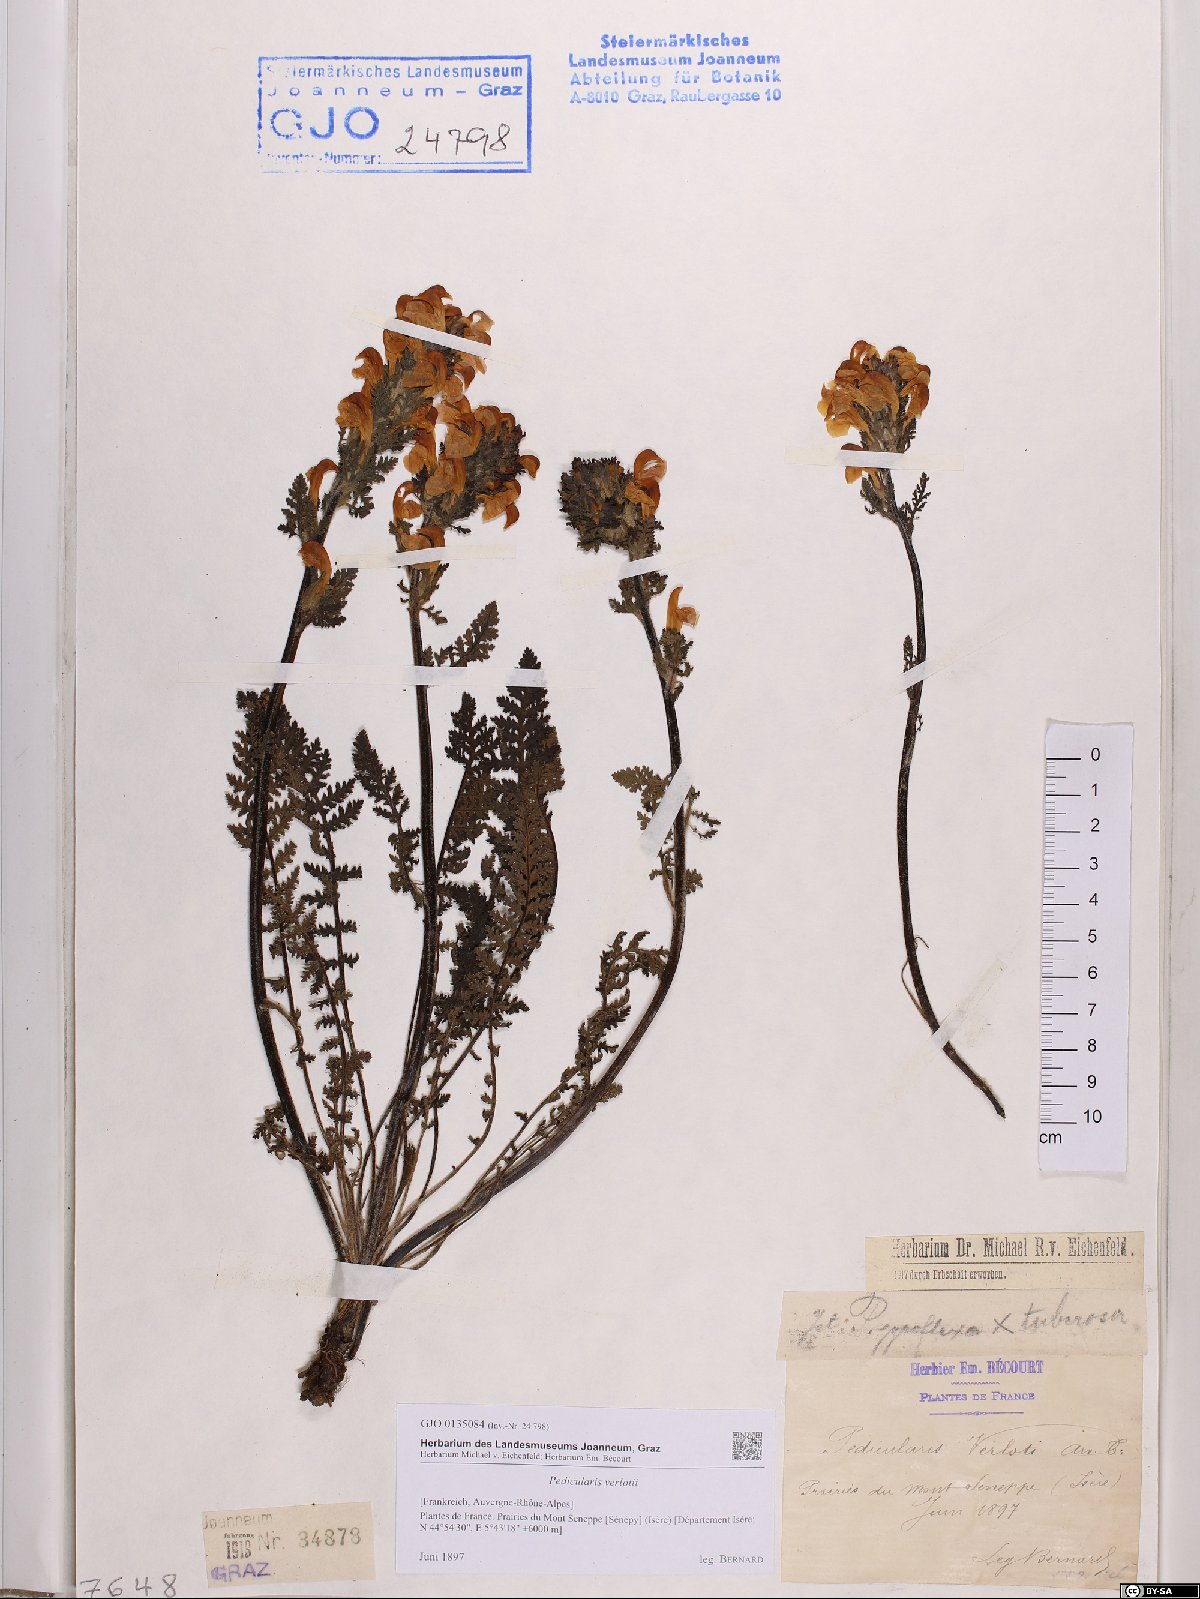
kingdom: Plantae
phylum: Tracheophyta
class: Magnoliopsida
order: Lamiales
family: Orobanchaceae
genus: Pedicularis
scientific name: Pedicularis verlotii
